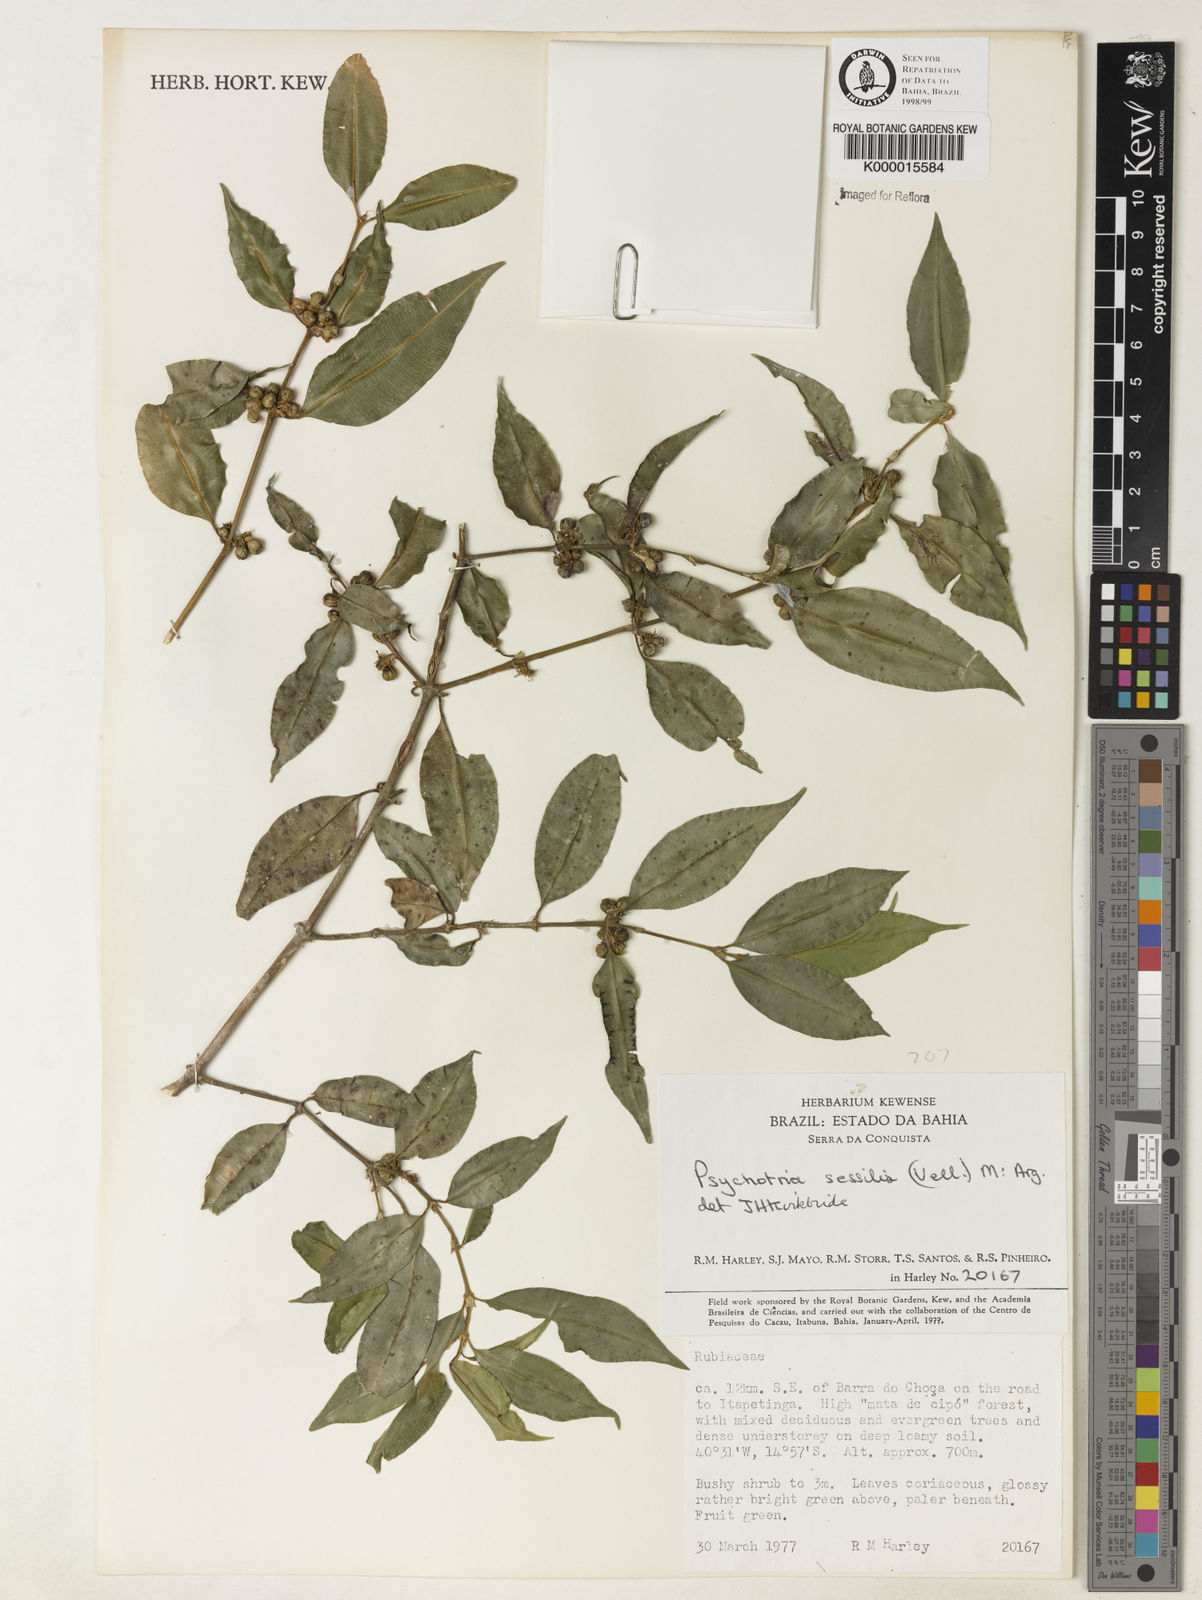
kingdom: Plantae
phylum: Tracheophyta
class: Magnoliopsida
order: Gentianales
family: Rubiaceae
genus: Psychotria
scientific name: Psychotria
